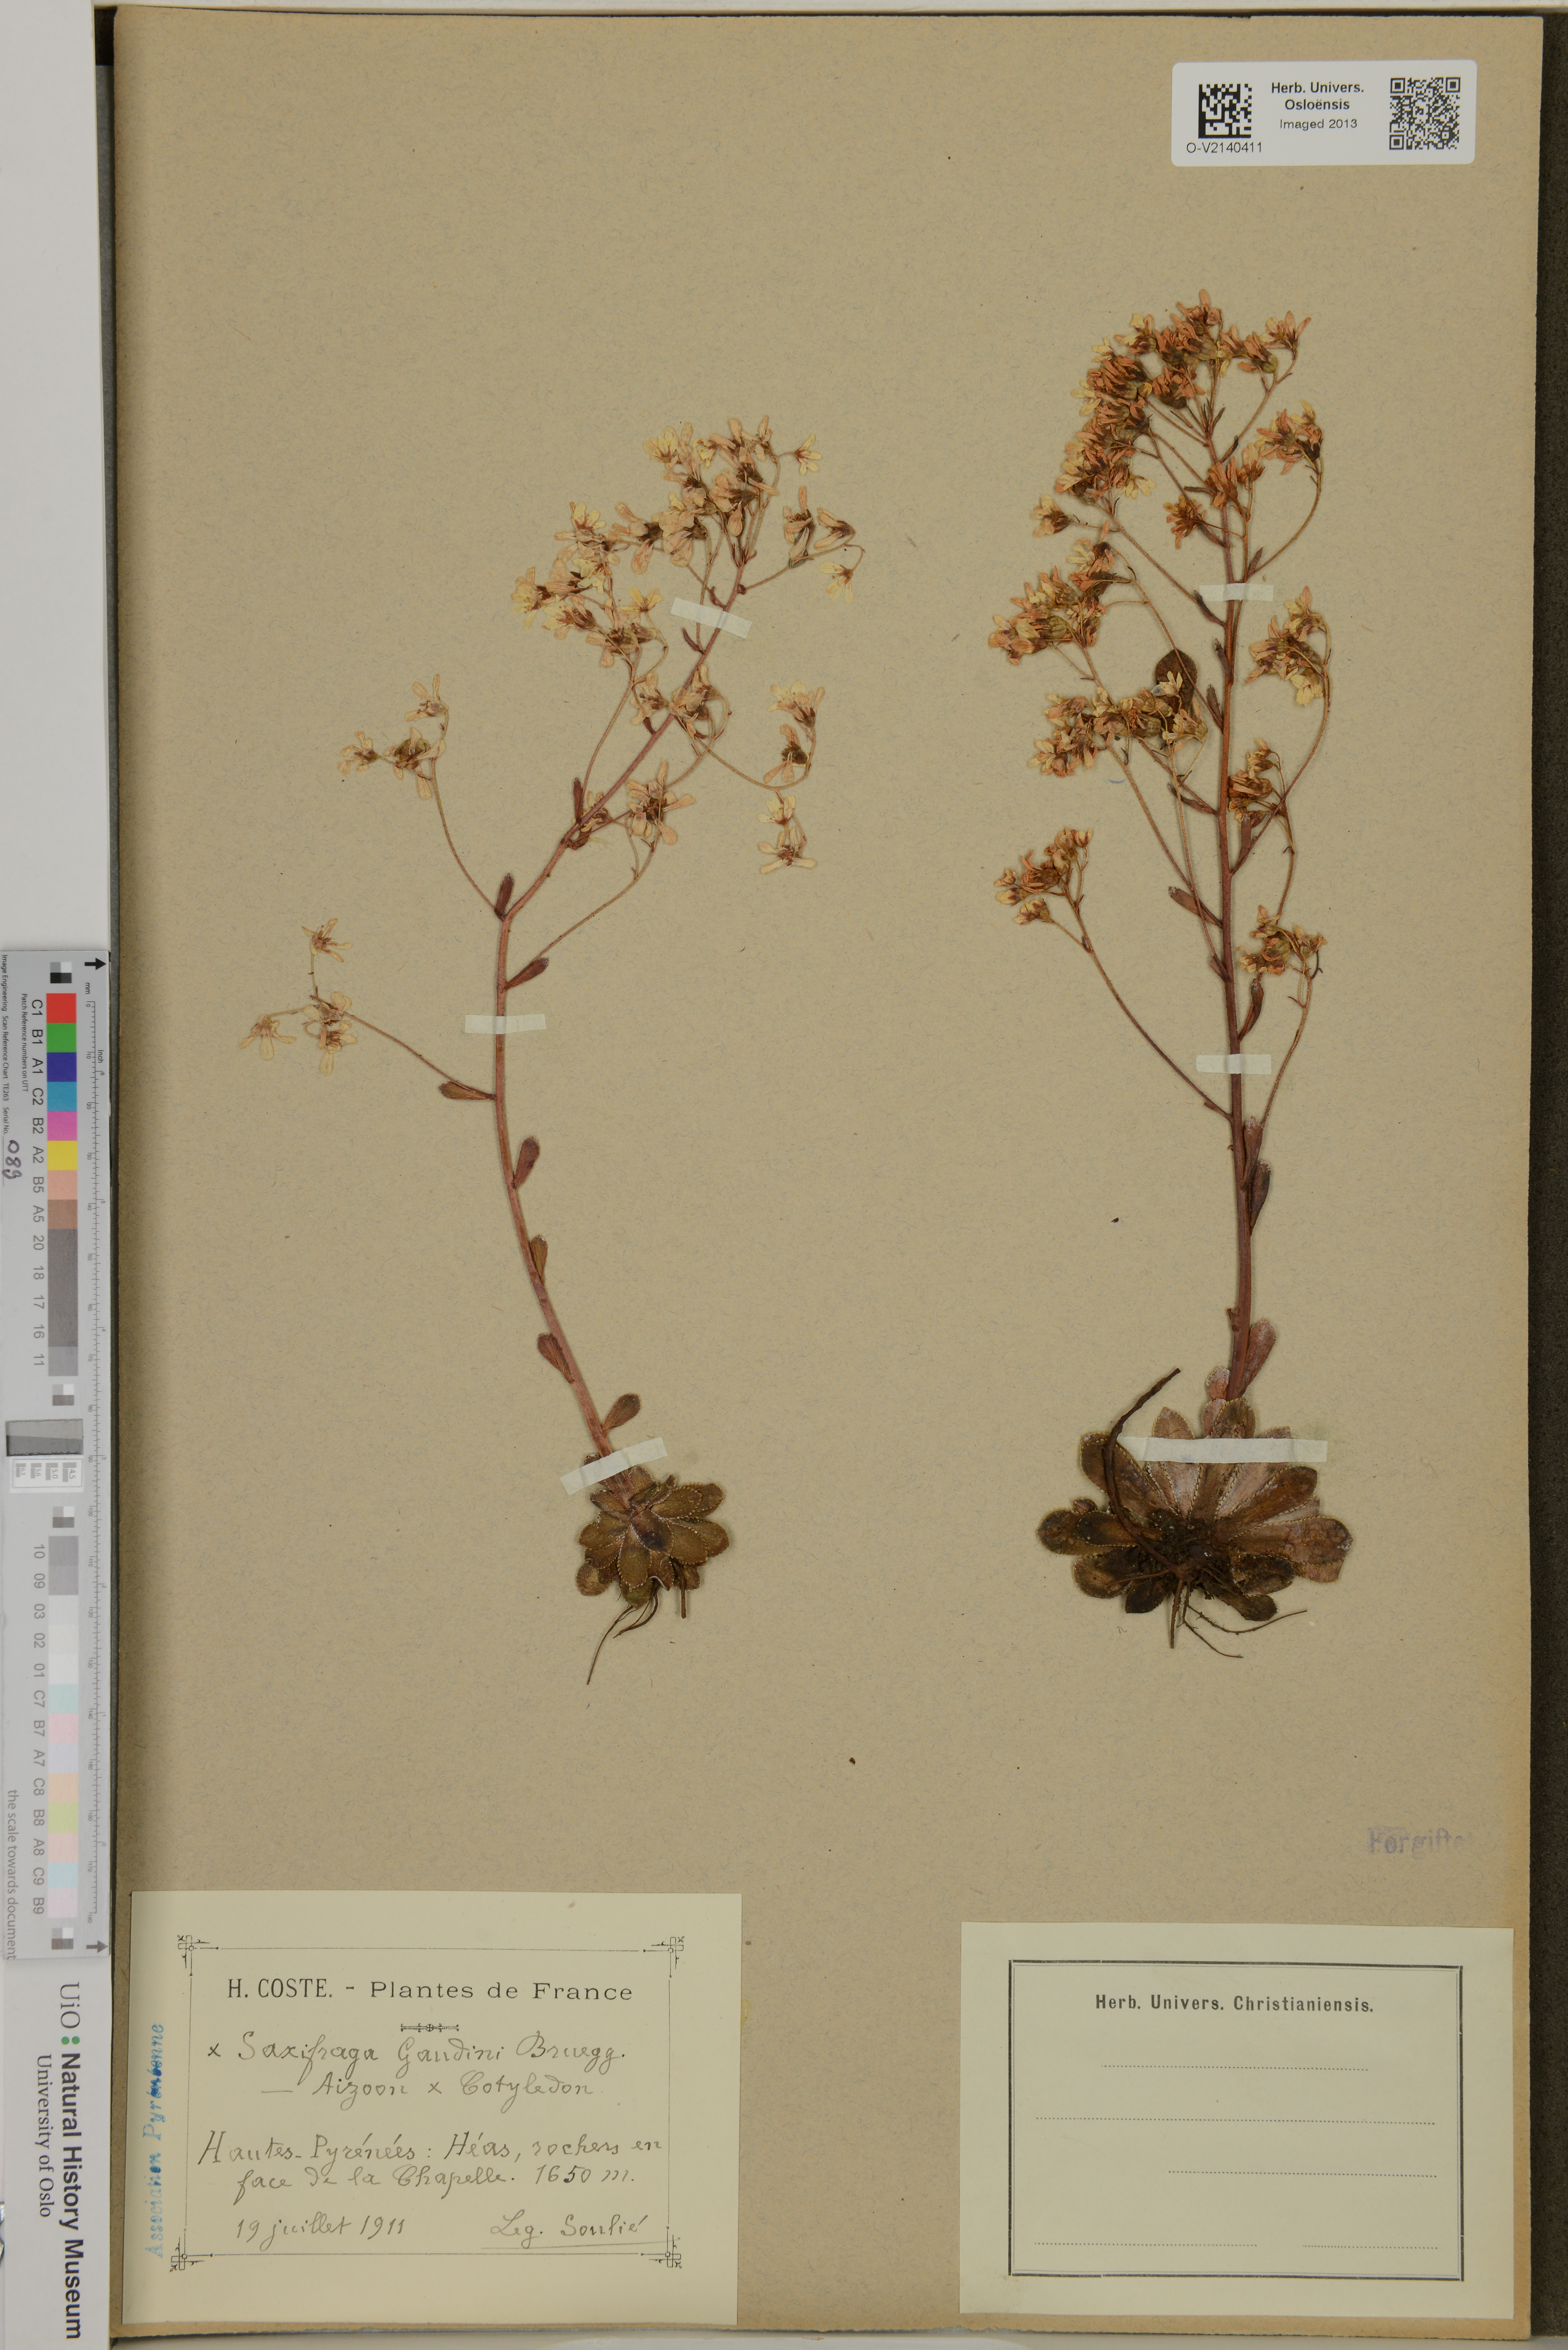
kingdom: Plantae
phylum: Tracheophyta
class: Magnoliopsida
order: Saxifragales
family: Saxifragaceae
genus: Saxifraga
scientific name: Saxifraga gaudinii
